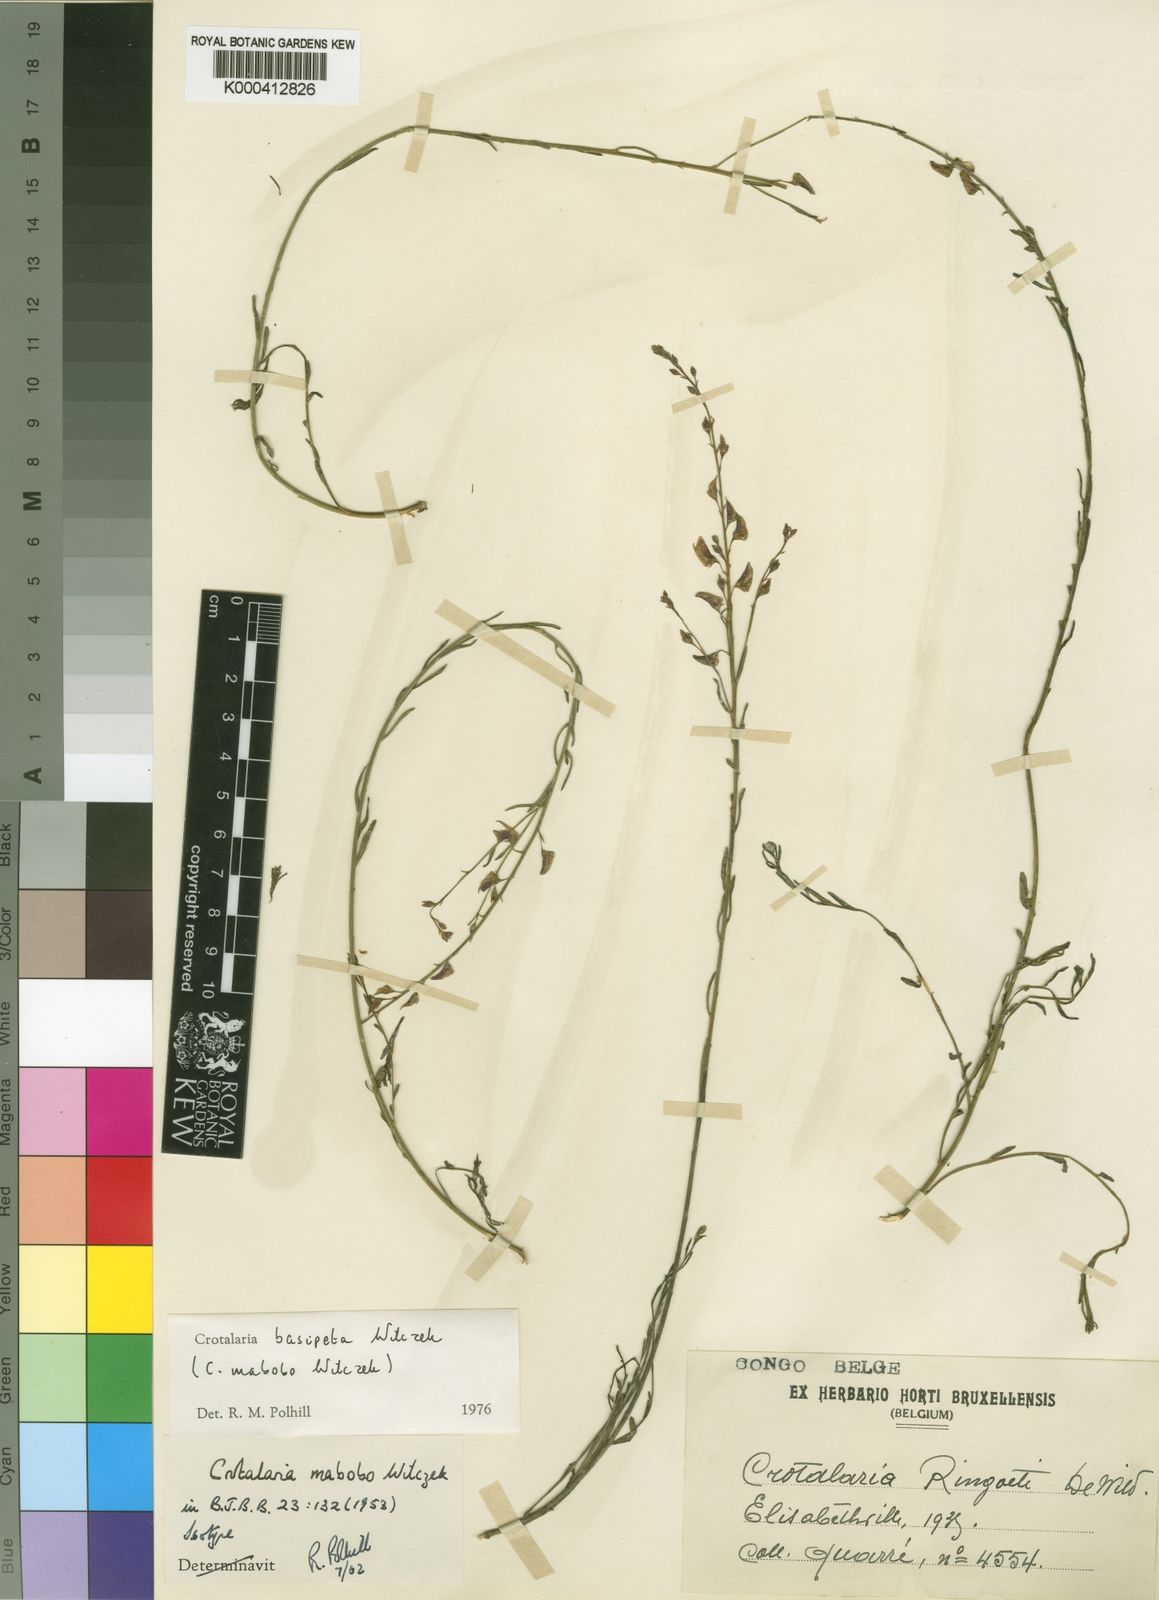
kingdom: Plantae
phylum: Tracheophyta
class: Magnoliopsida
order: Fabales
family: Fabaceae
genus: Crotalaria
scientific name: Crotalaria basipeta
